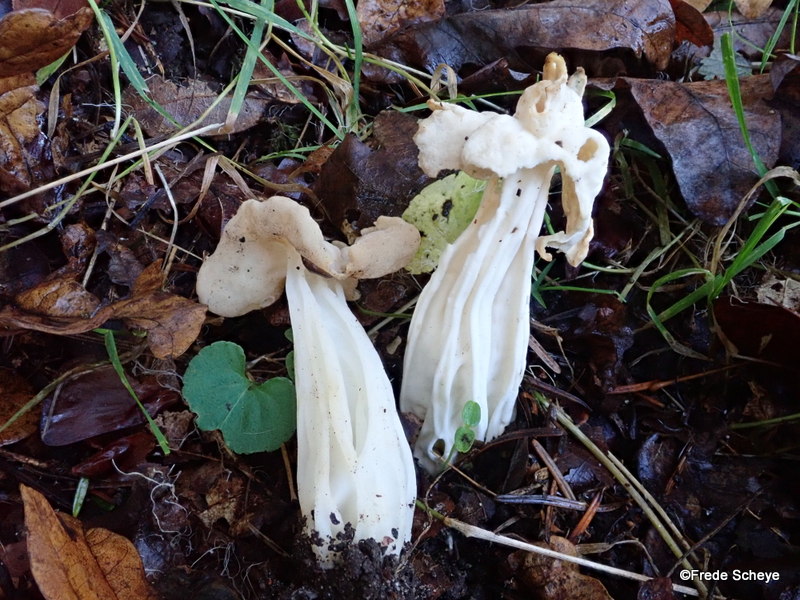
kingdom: Fungi
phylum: Ascomycota
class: Pezizomycetes
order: Pezizales
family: Helvellaceae
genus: Helvella
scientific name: Helvella crispa
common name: kruset foldhat
